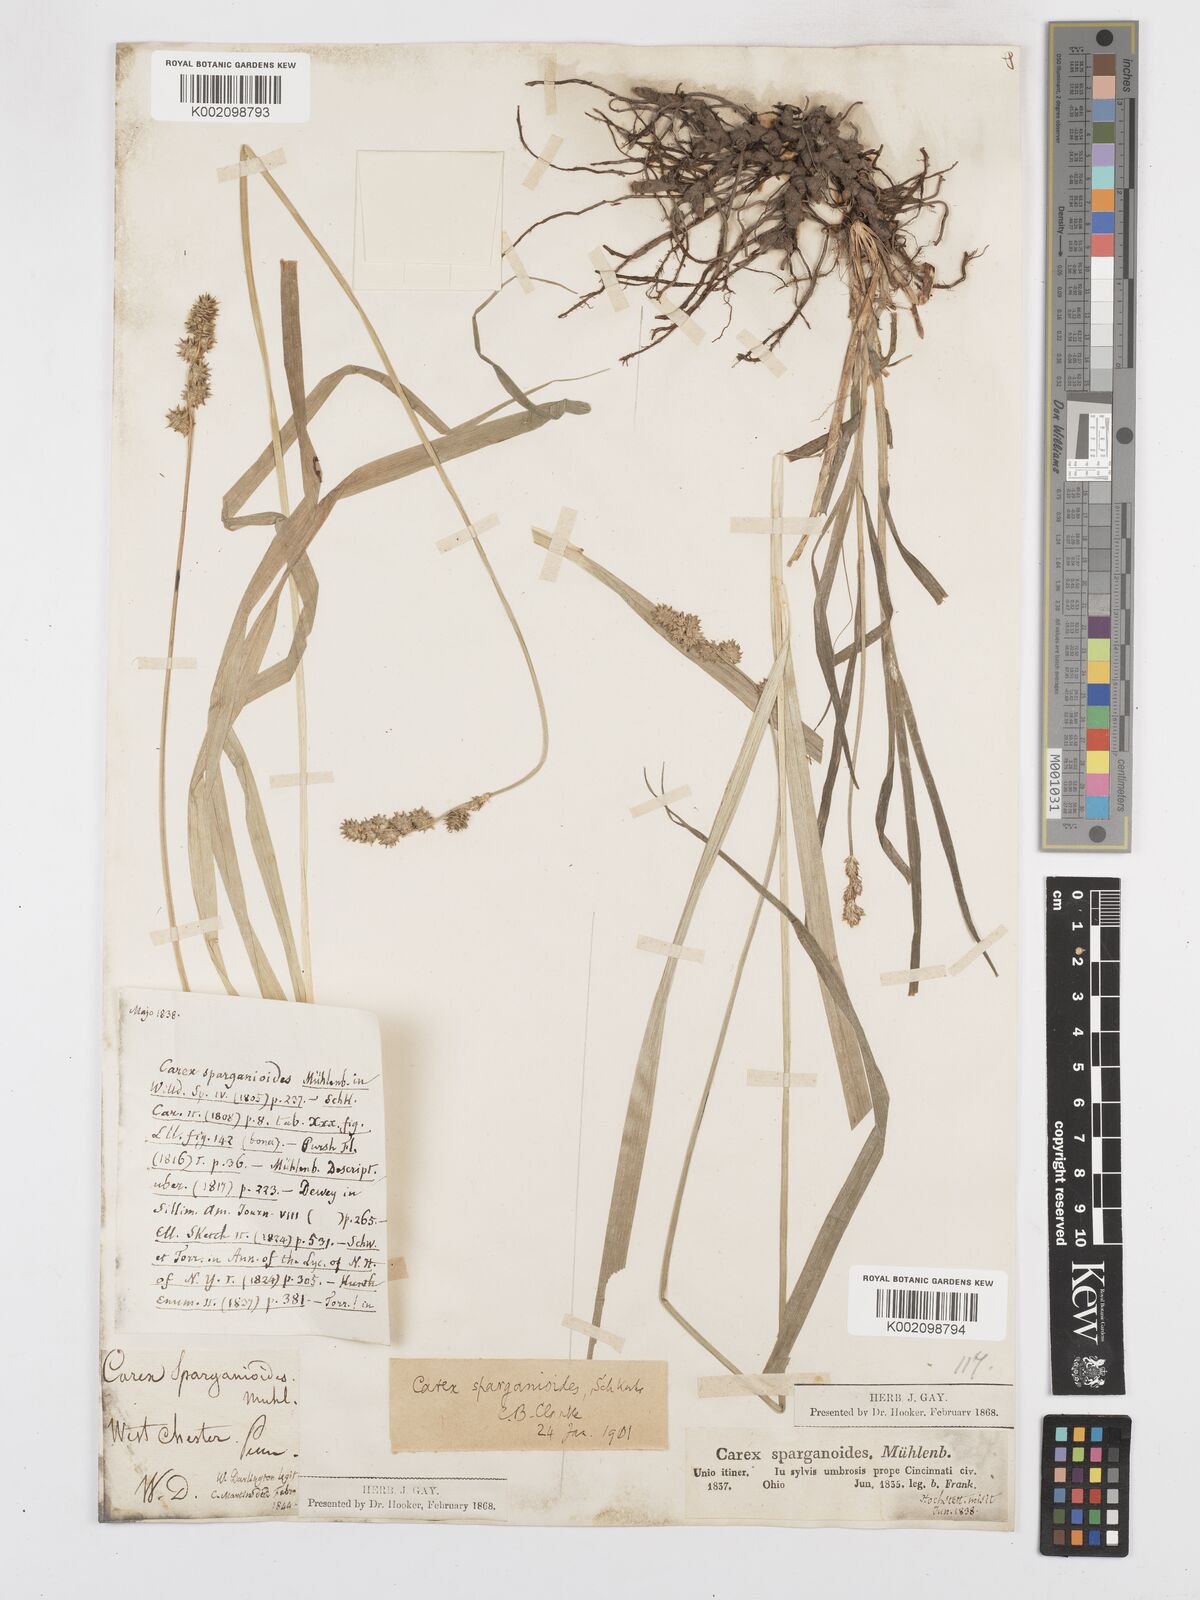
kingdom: Plantae
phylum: Tracheophyta
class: Liliopsida
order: Poales
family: Cyperaceae
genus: Carex
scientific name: Carex sparganioides
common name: Burreed sedge
